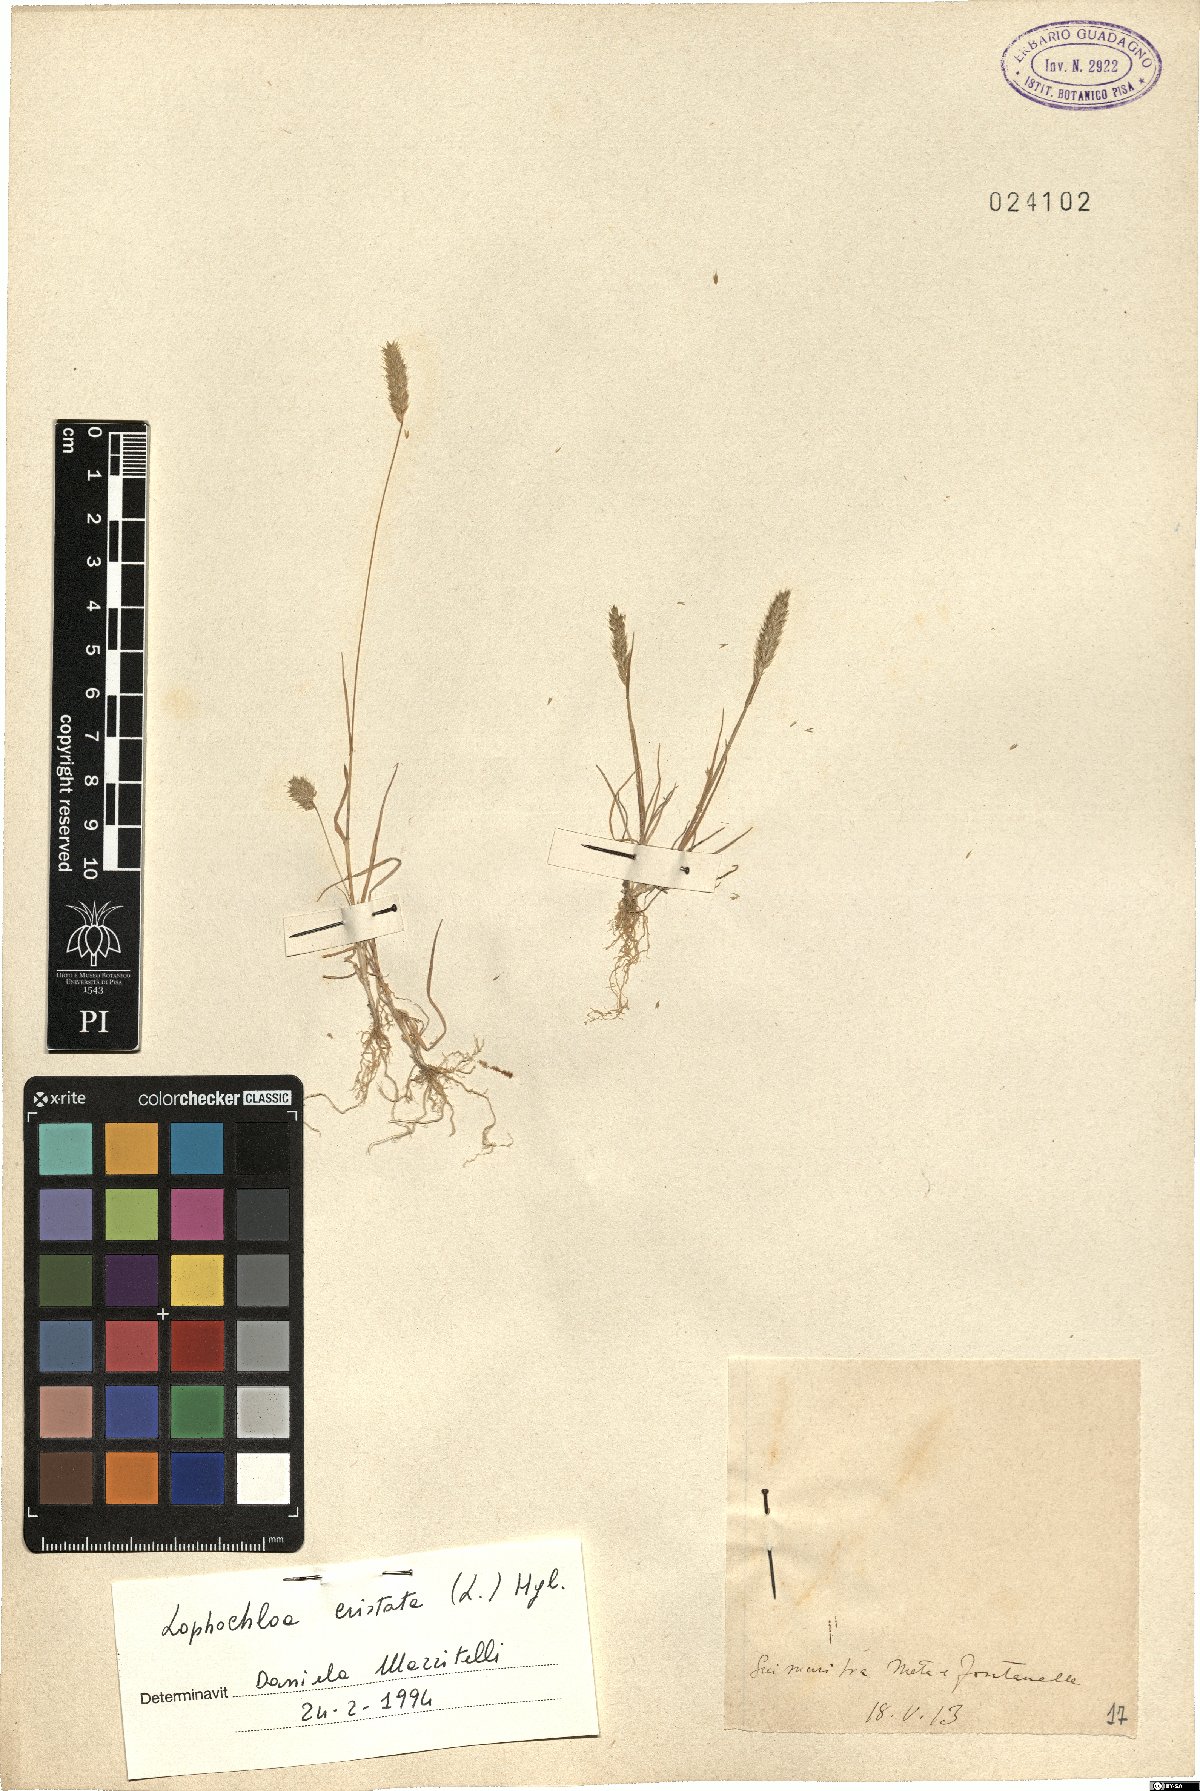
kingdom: Plantae
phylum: Tracheophyta
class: Liliopsida
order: Poales
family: Poaceae
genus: Rostraria
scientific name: Rostraria cristata
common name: Mediterranean hair-grass
